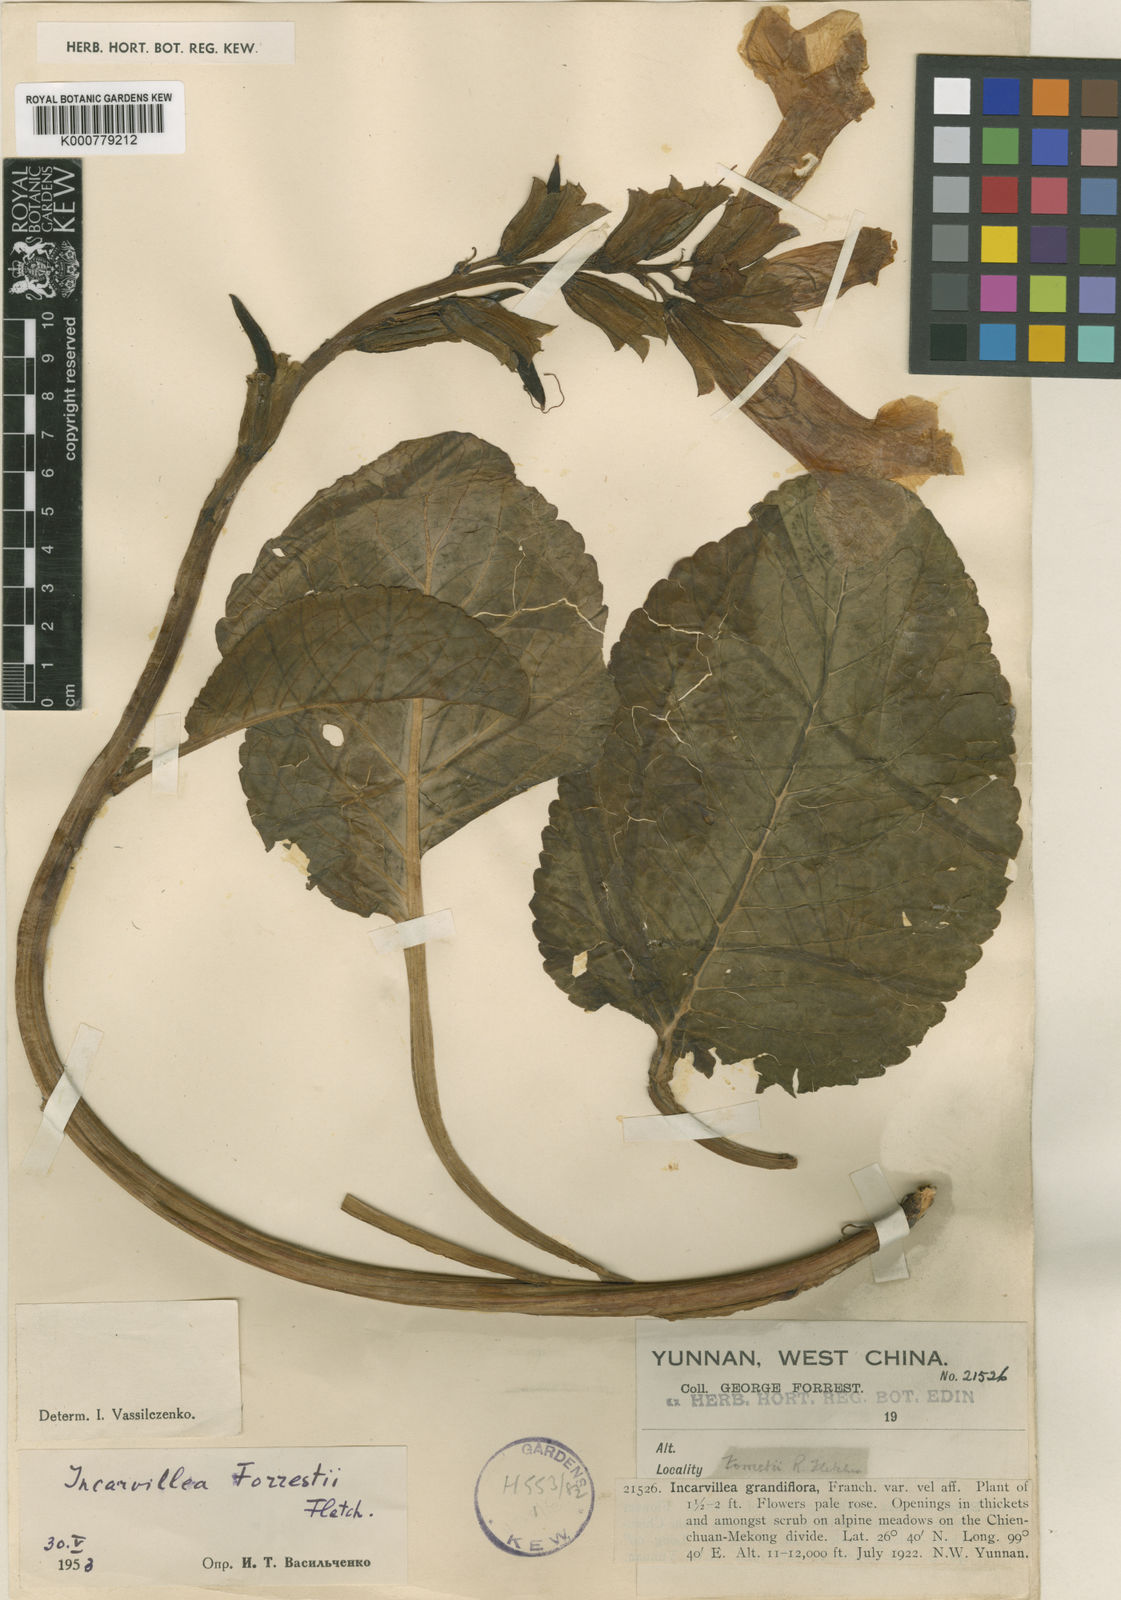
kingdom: Plantae
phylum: Tracheophyta
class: Magnoliopsida
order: Lamiales
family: Bignoniaceae
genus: Incarvillea
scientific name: Incarvillea forrestii
